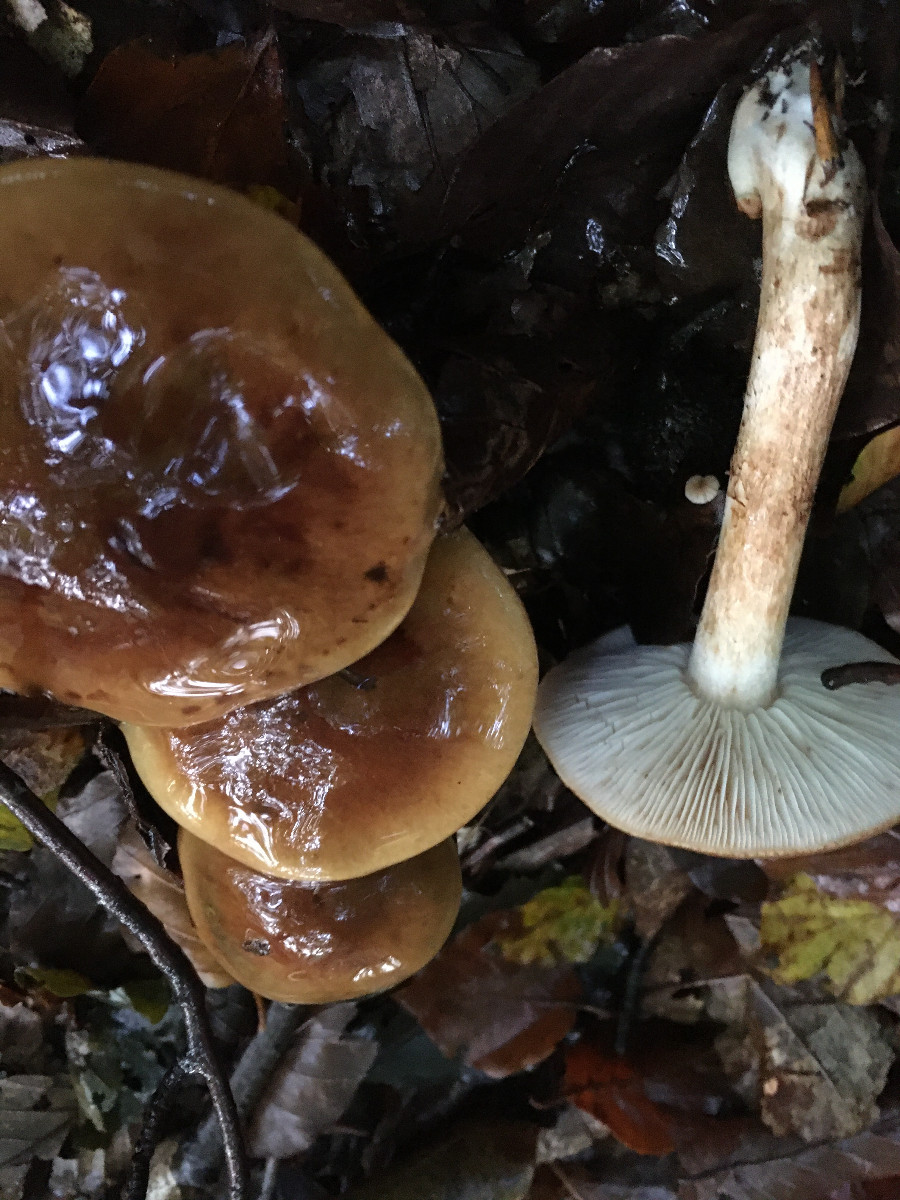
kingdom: Fungi
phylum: Basidiomycota
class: Agaricomycetes
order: Agaricales
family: Tricholomataceae
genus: Tricholoma
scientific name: Tricholoma ustale
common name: sveden ridderhat
